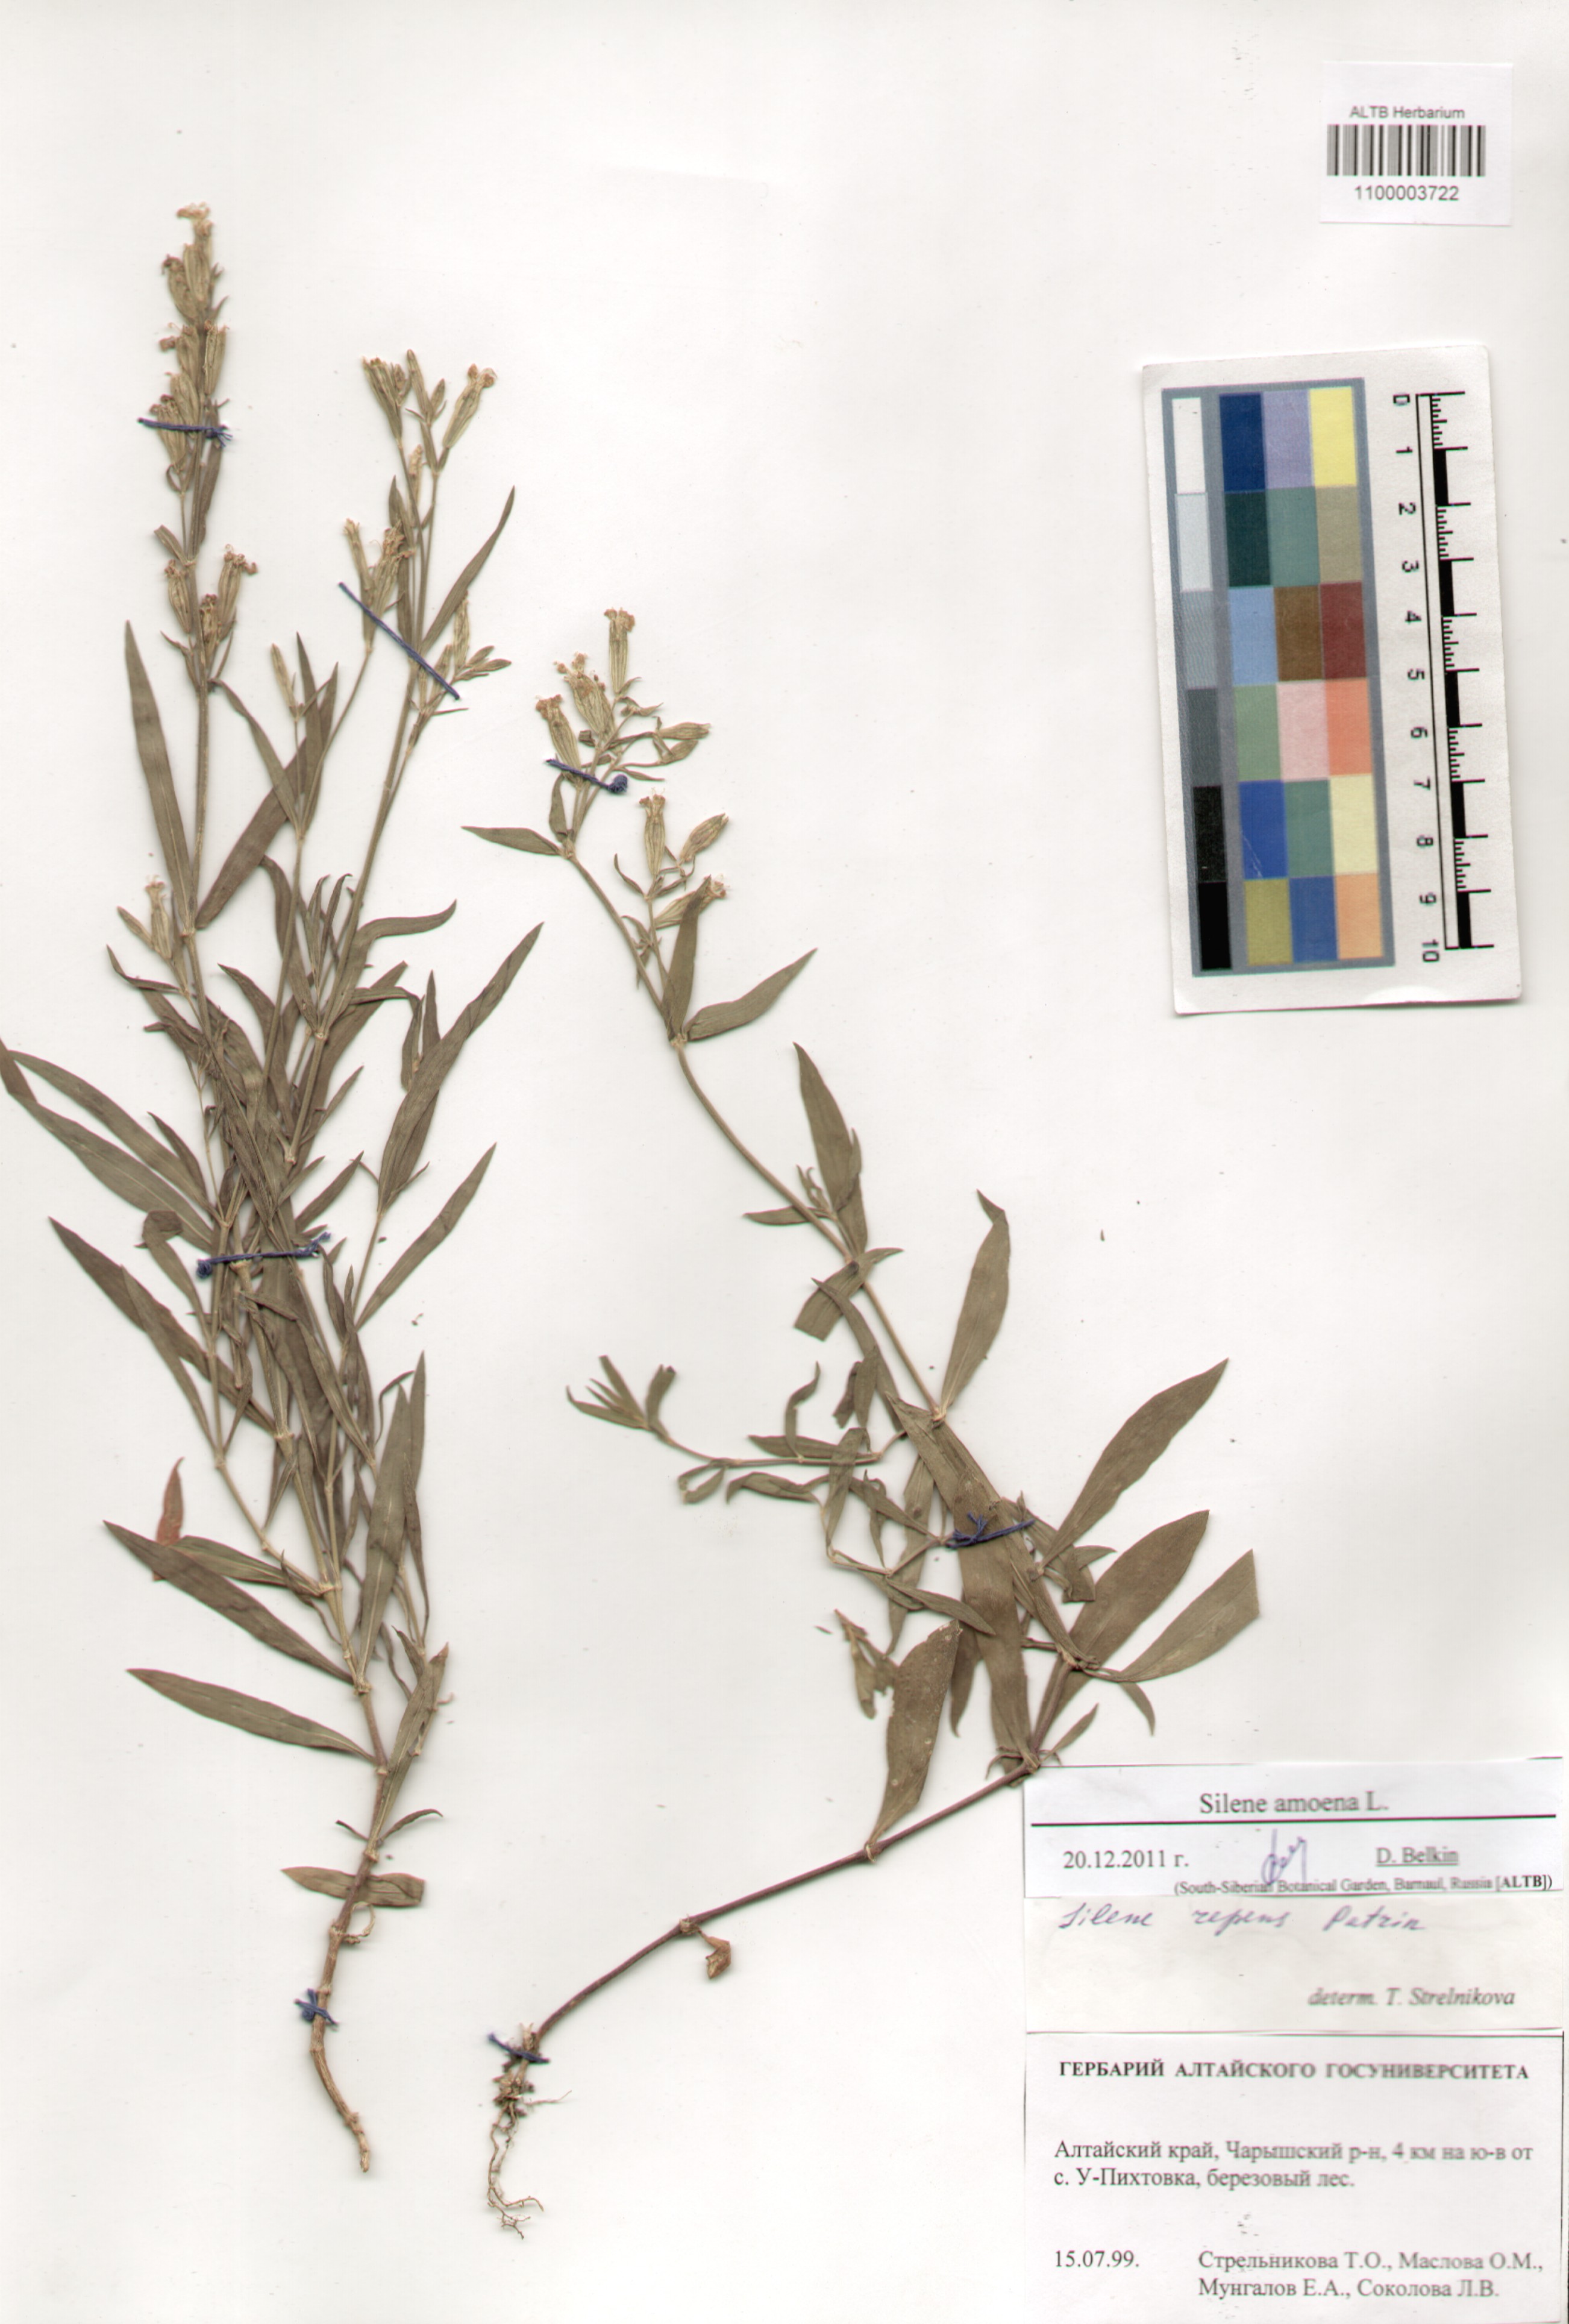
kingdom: Plantae
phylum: Tracheophyta
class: Magnoliopsida
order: Caryophyllales
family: Caryophyllaceae
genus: Silene
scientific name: Silene amoena
